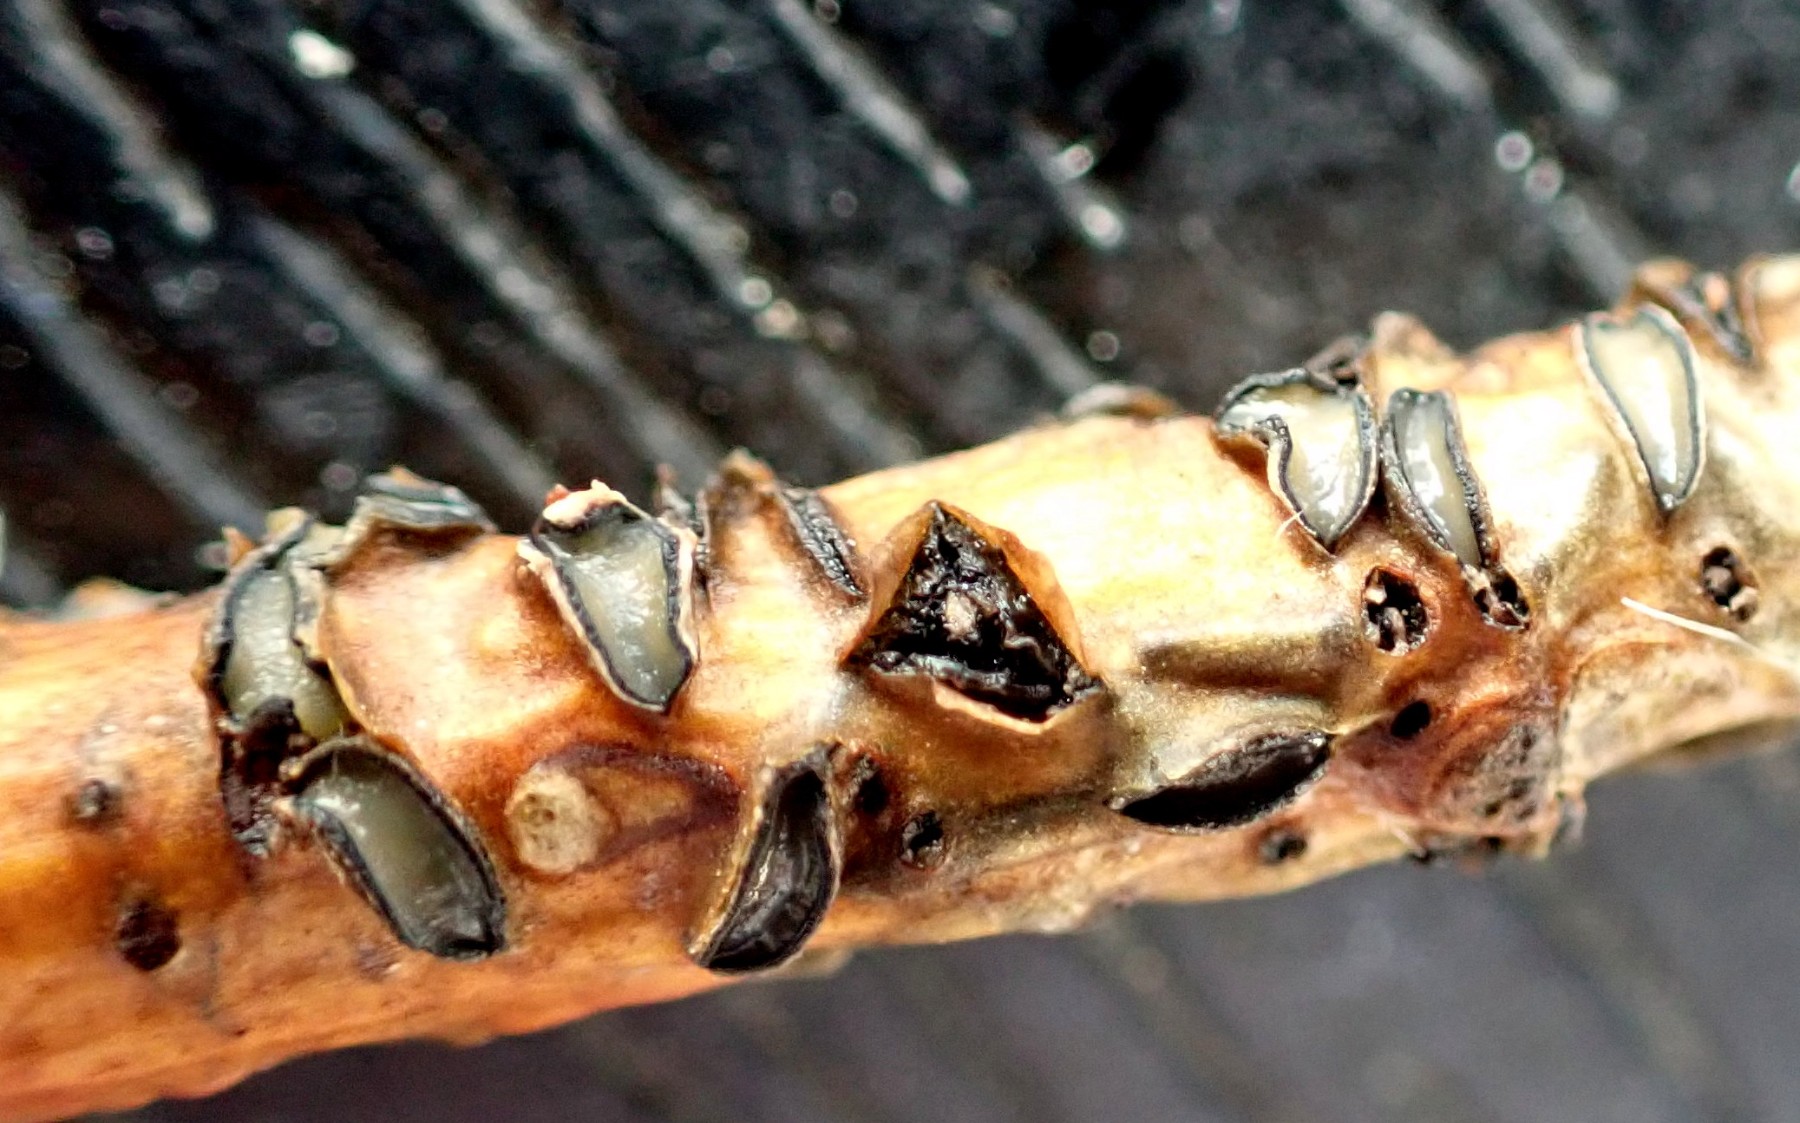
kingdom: Fungi
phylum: Ascomycota
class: Leotiomycetes
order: Rhytismatales
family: Rhytismataceae
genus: Colpoma
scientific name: Colpoma quercinum
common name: ege-sprækkeskive
